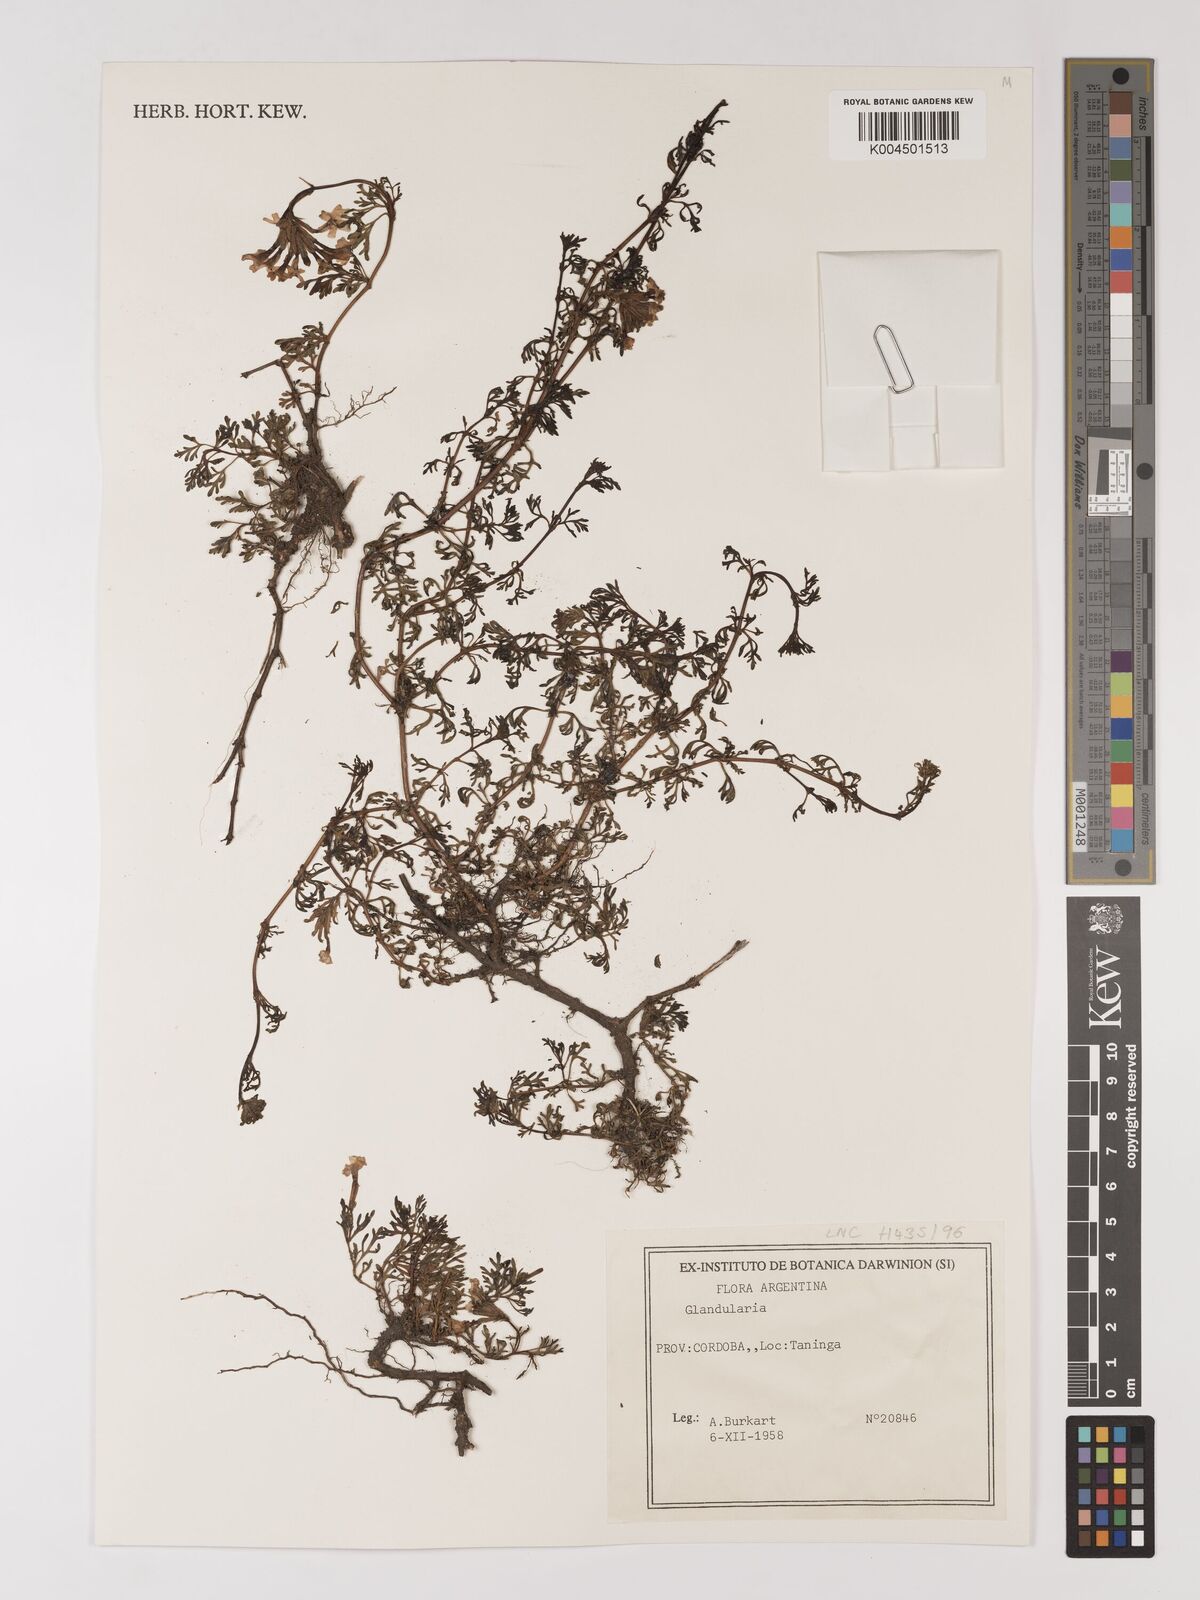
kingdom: Plantae
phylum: Tracheophyta
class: Magnoliopsida
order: Lamiales
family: Verbenaceae
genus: Verbena
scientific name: Verbena
